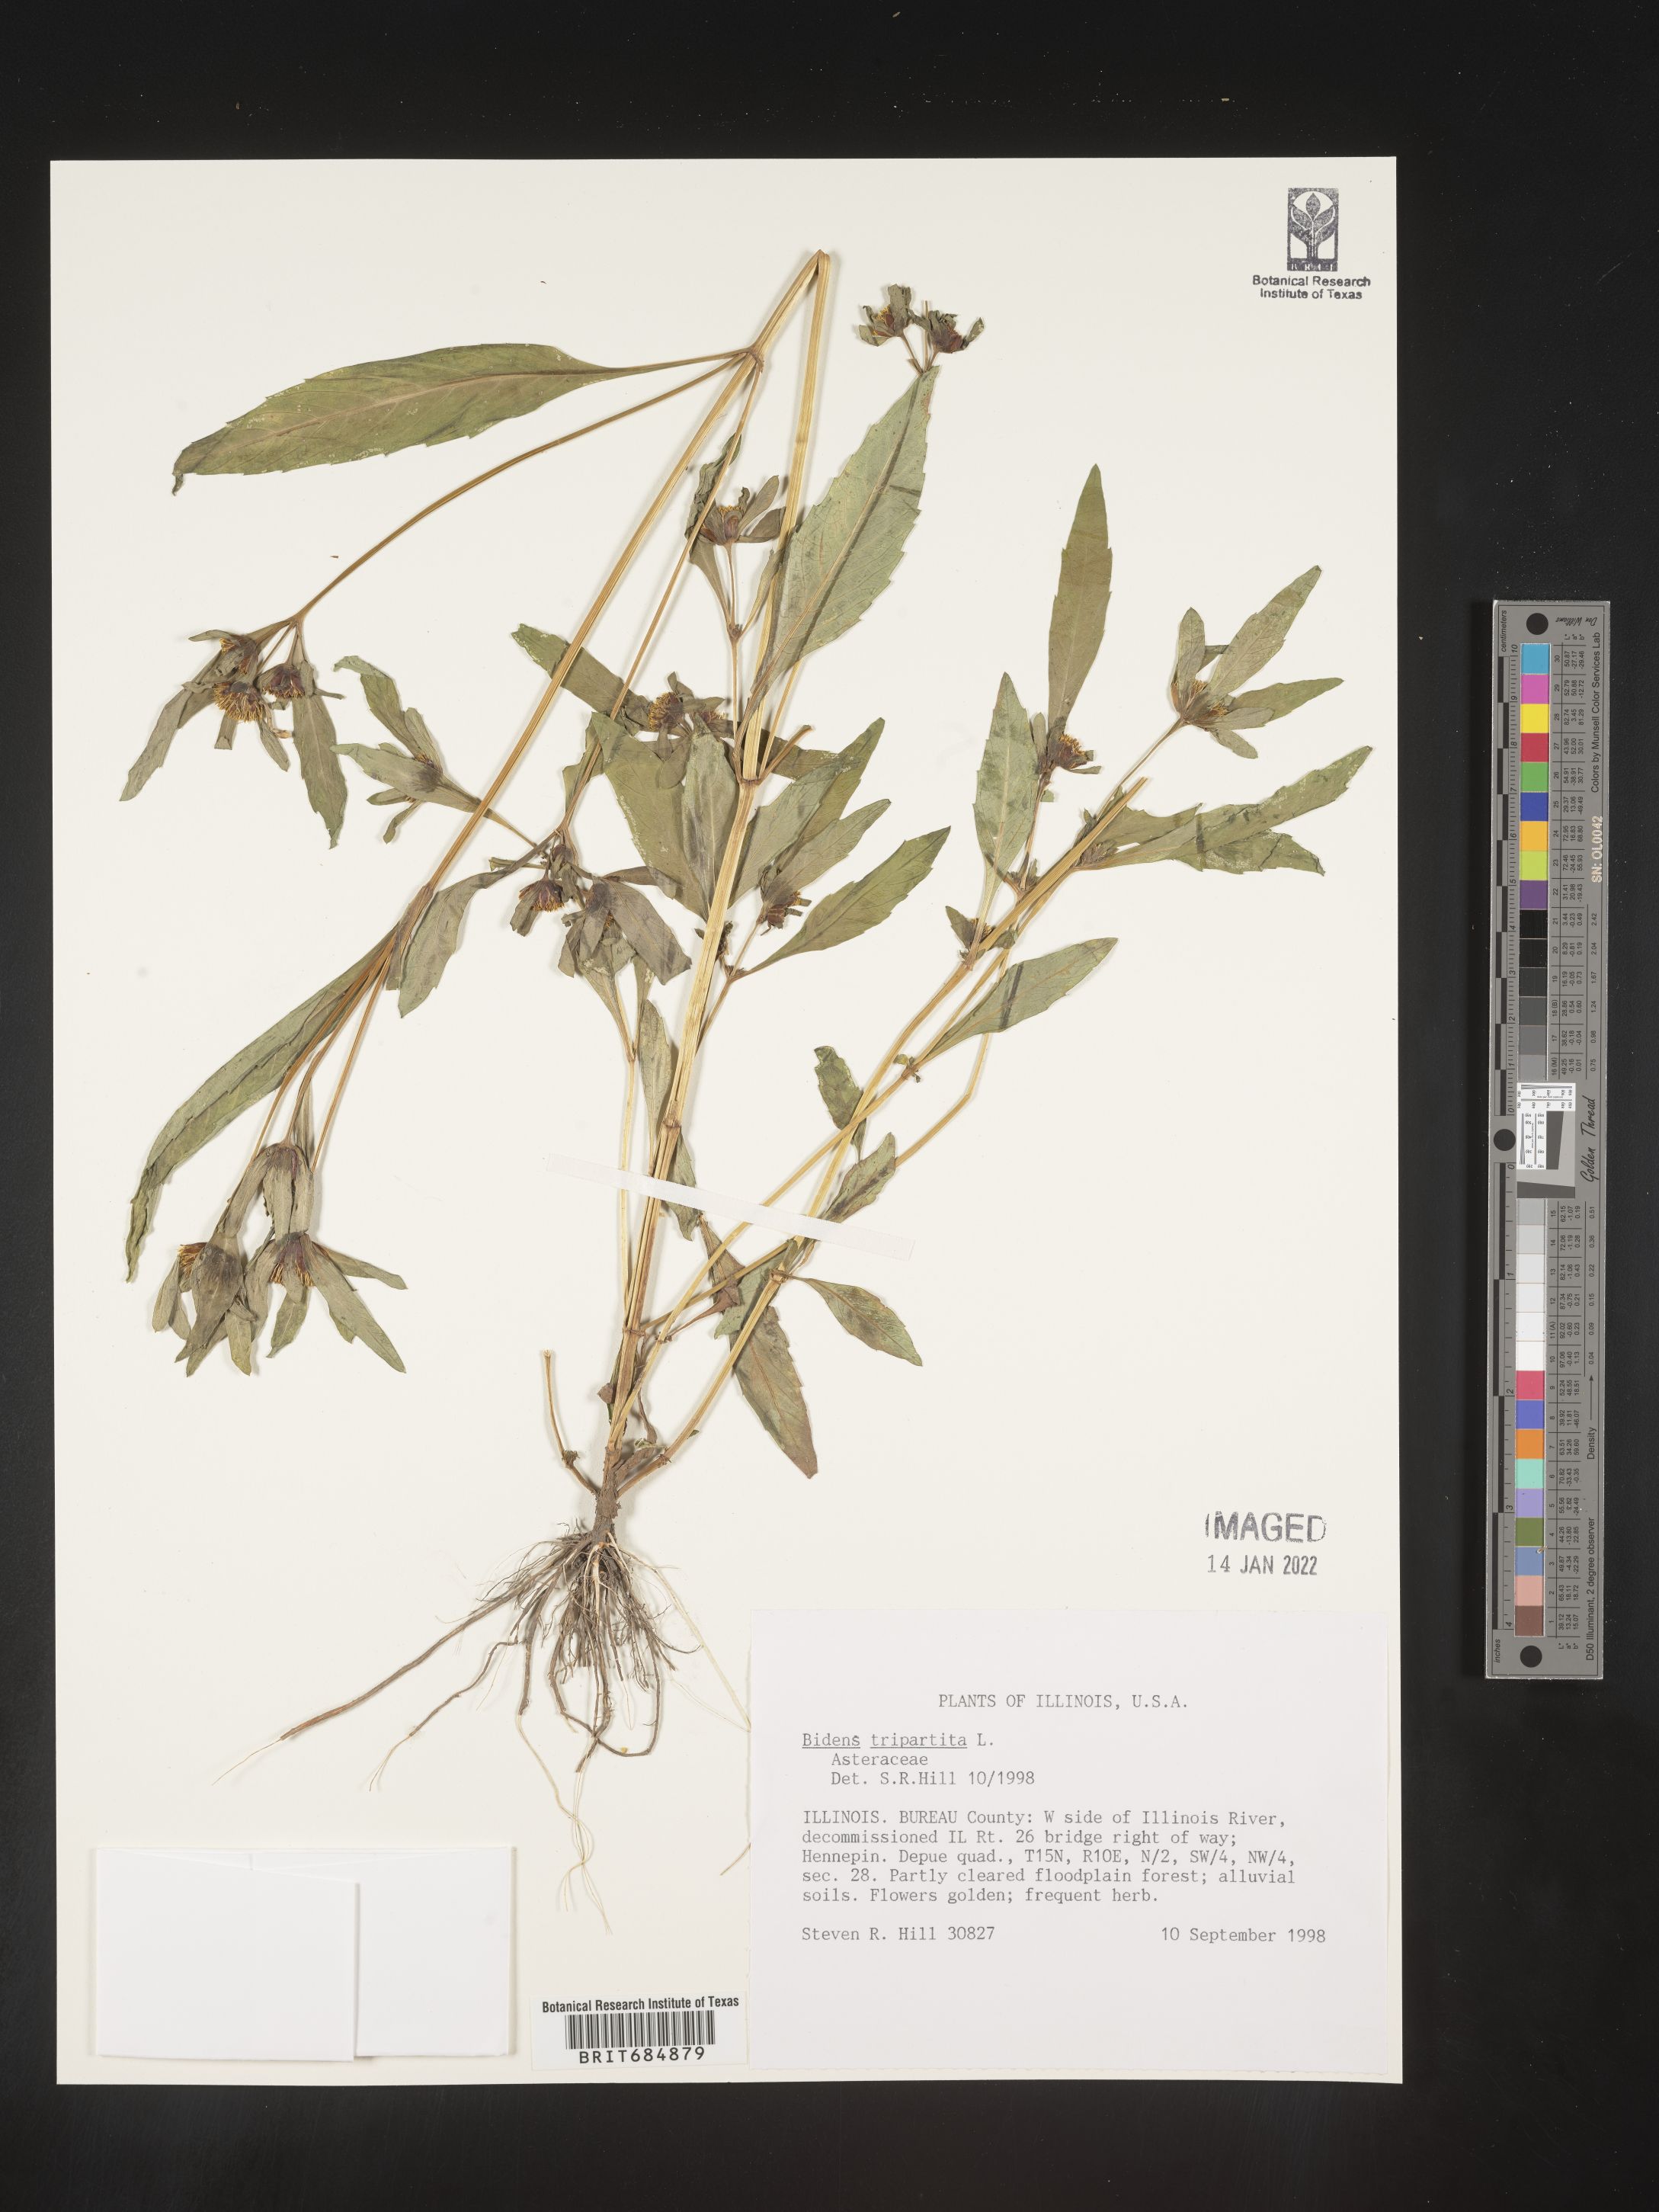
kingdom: Plantae
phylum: Tracheophyta
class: Magnoliopsida
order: Asterales
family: Asteraceae
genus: Bidens
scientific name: Bidens tripartita
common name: Trifid bur-marigold
